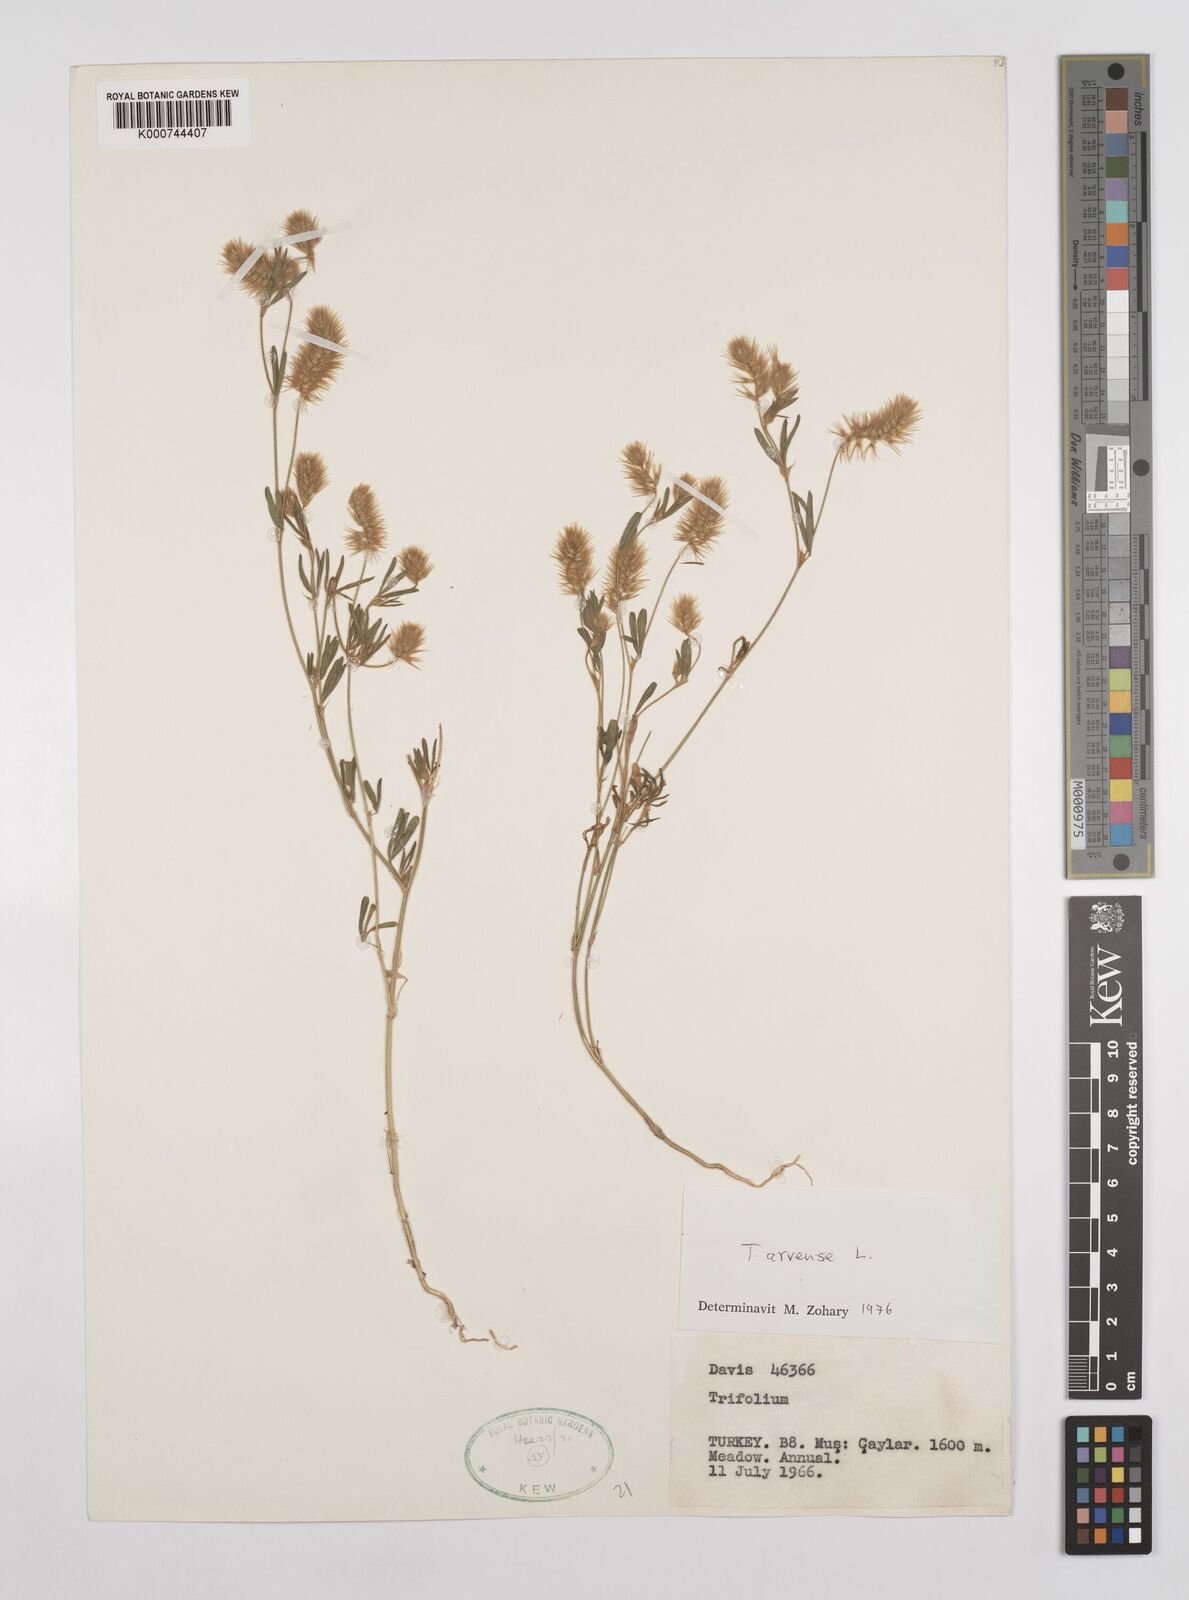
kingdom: Plantae
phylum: Tracheophyta
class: Magnoliopsida
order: Fabales
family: Fabaceae
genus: Trifolium
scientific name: Trifolium arvense
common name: Hare's-foot clover
